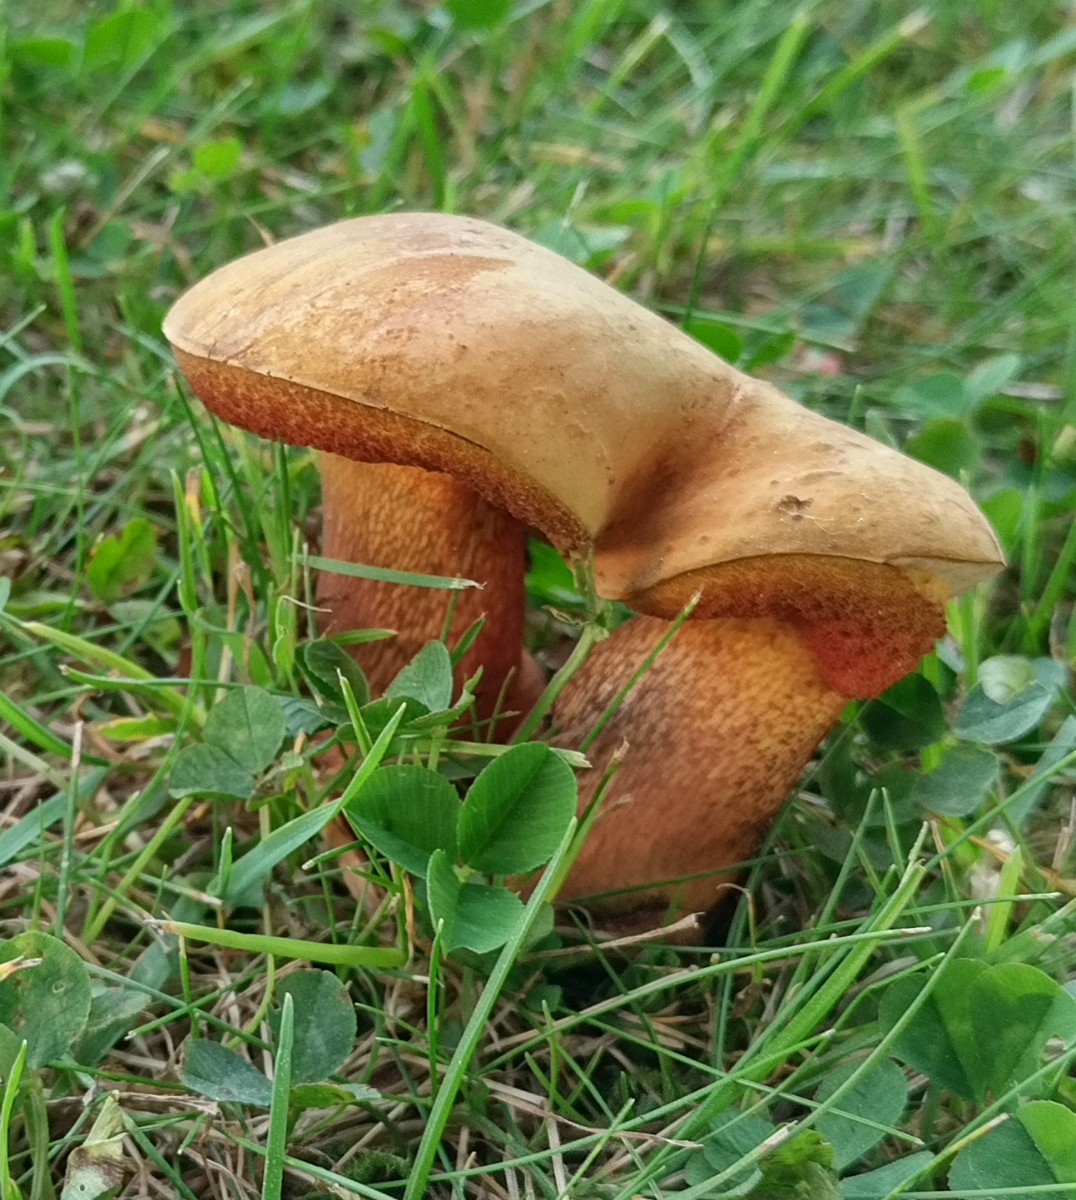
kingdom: Fungi
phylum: Basidiomycota
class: Agaricomycetes
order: Boletales
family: Boletaceae
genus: Suillellus
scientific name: Suillellus luridus
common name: netstokket indigorørhat
